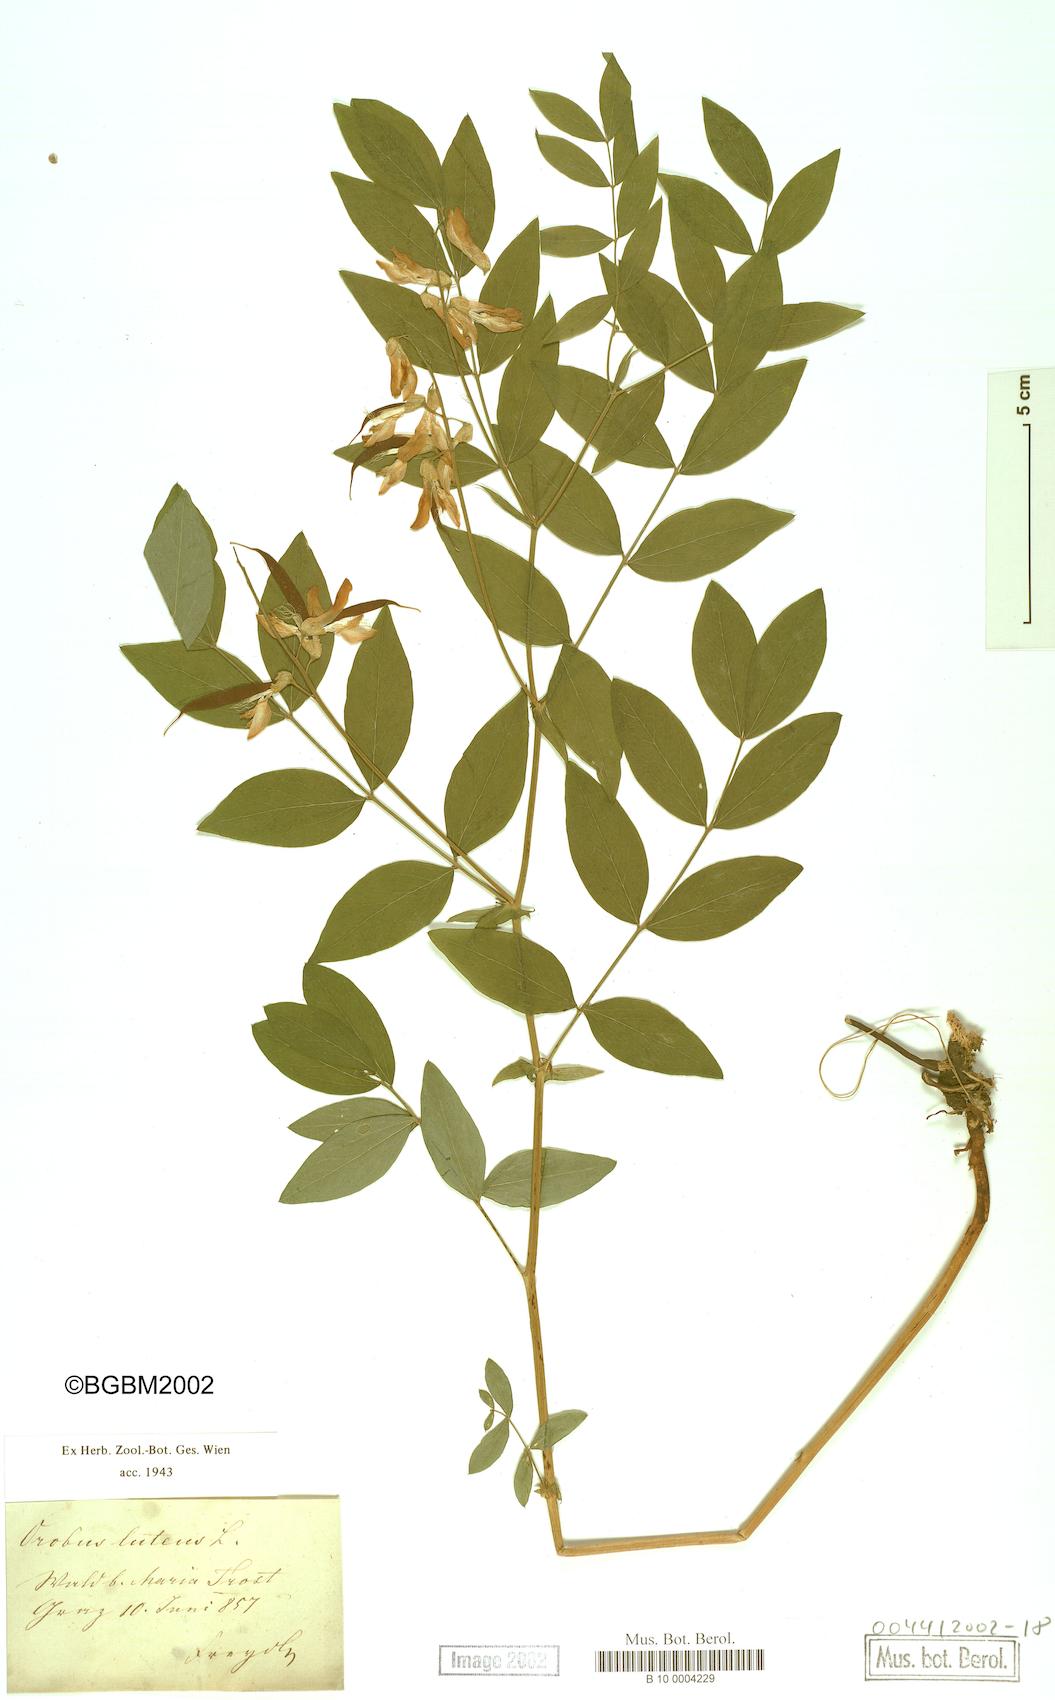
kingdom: Plantae
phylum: Tracheophyta
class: Magnoliopsida
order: Fabales
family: Fabaceae
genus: Lathyrus
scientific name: Lathyrus gmelinii
